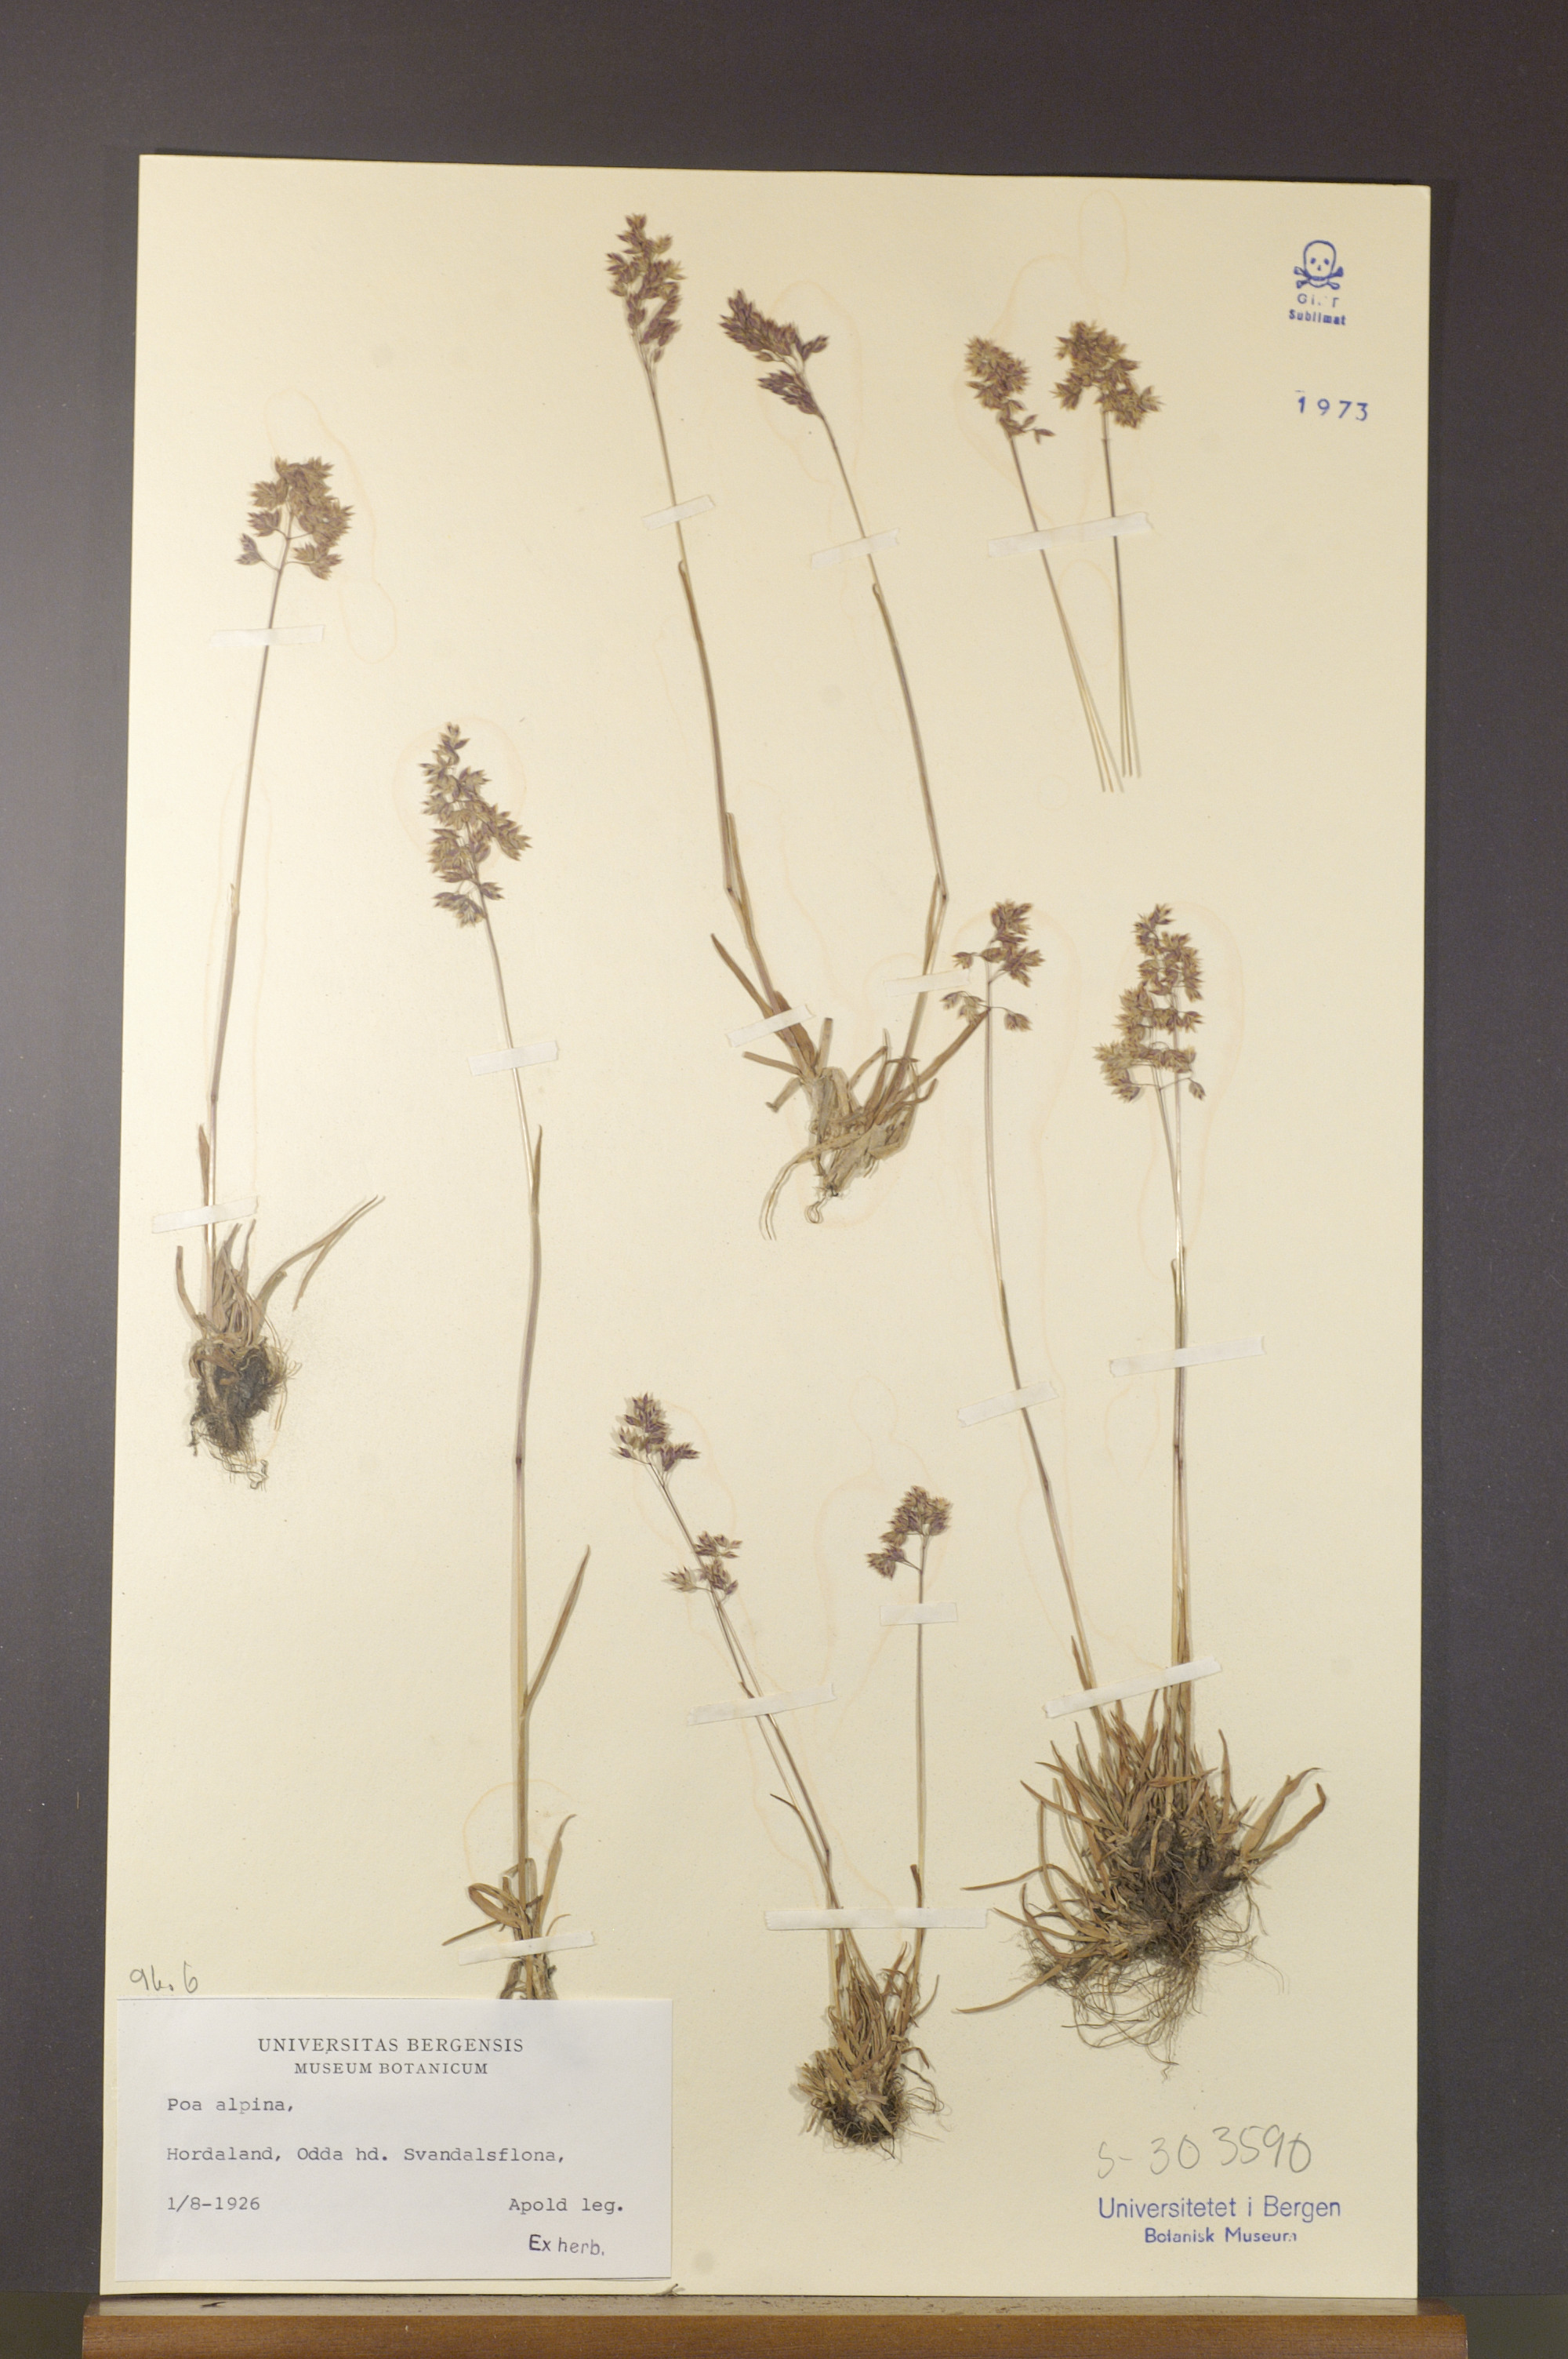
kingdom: Plantae
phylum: Tracheophyta
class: Liliopsida
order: Poales
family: Poaceae
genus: Poa
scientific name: Poa alpina
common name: Alpine bluegrass
